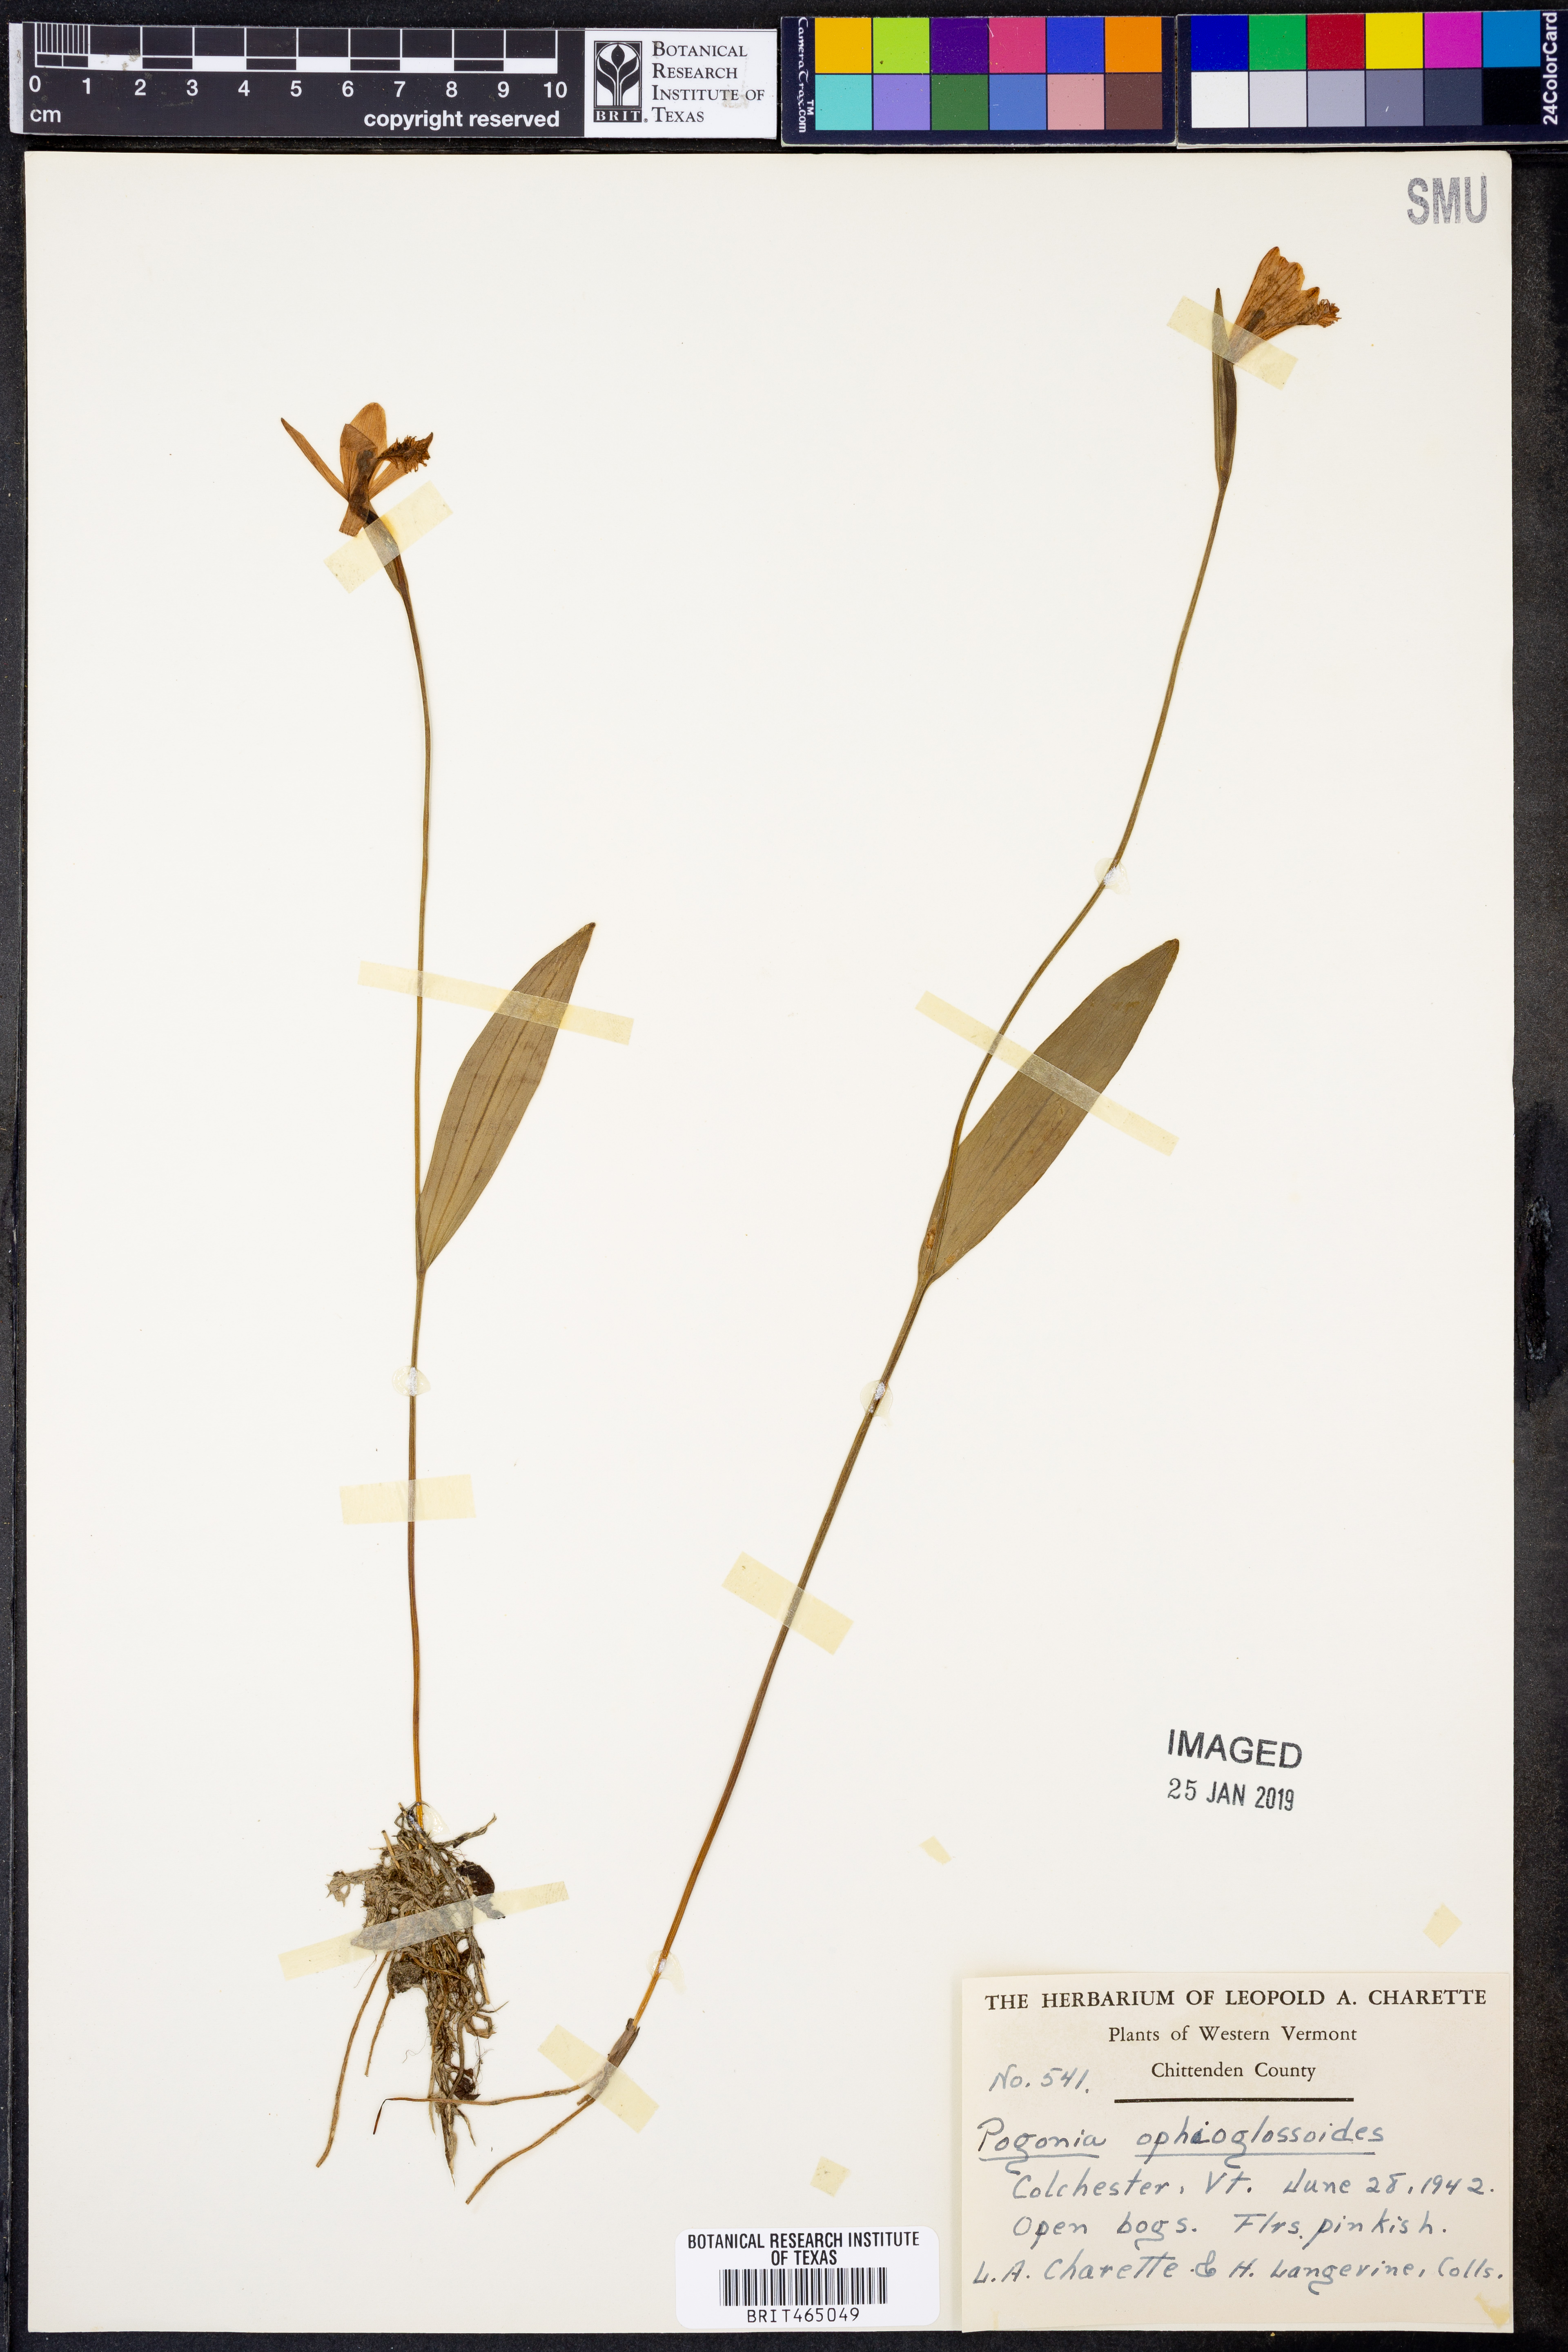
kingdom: Plantae
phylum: Tracheophyta
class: Liliopsida
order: Asparagales
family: Orchidaceae
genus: Pogonia
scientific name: Pogonia ophioglossoides
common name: Rose pogonia
